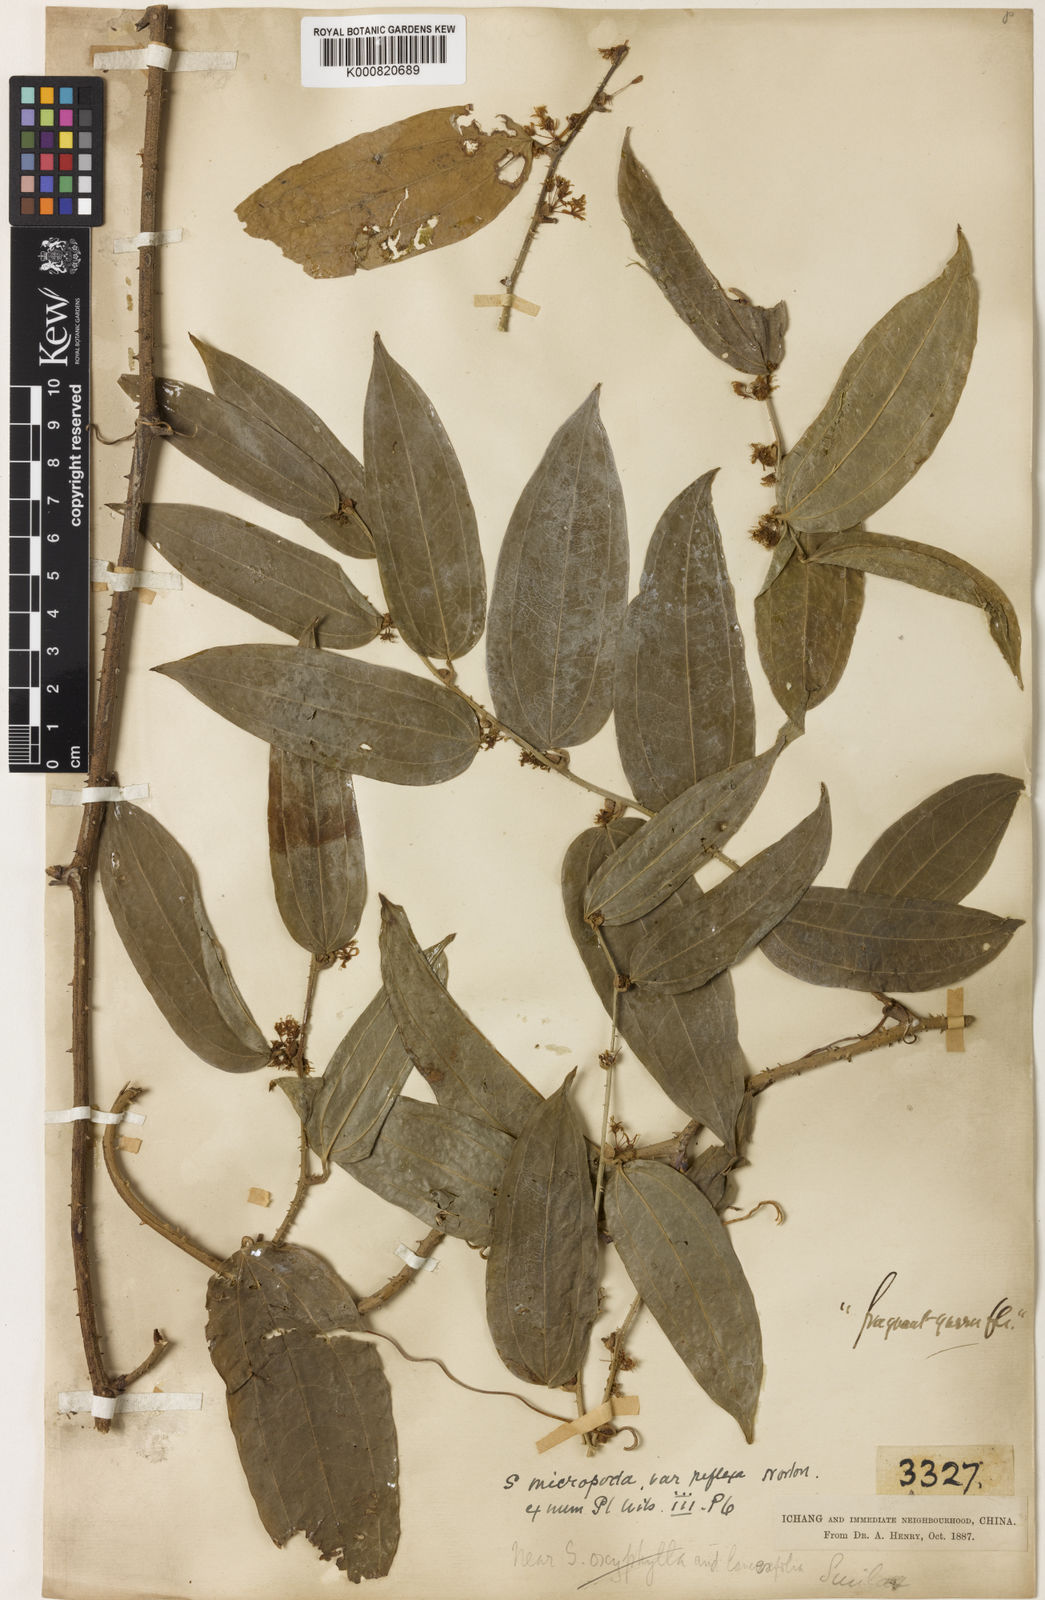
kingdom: Plantae
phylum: Tracheophyta
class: Liliopsida
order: Liliales
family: Smilacaceae
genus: Smilax
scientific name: Smilax lanceifolia
